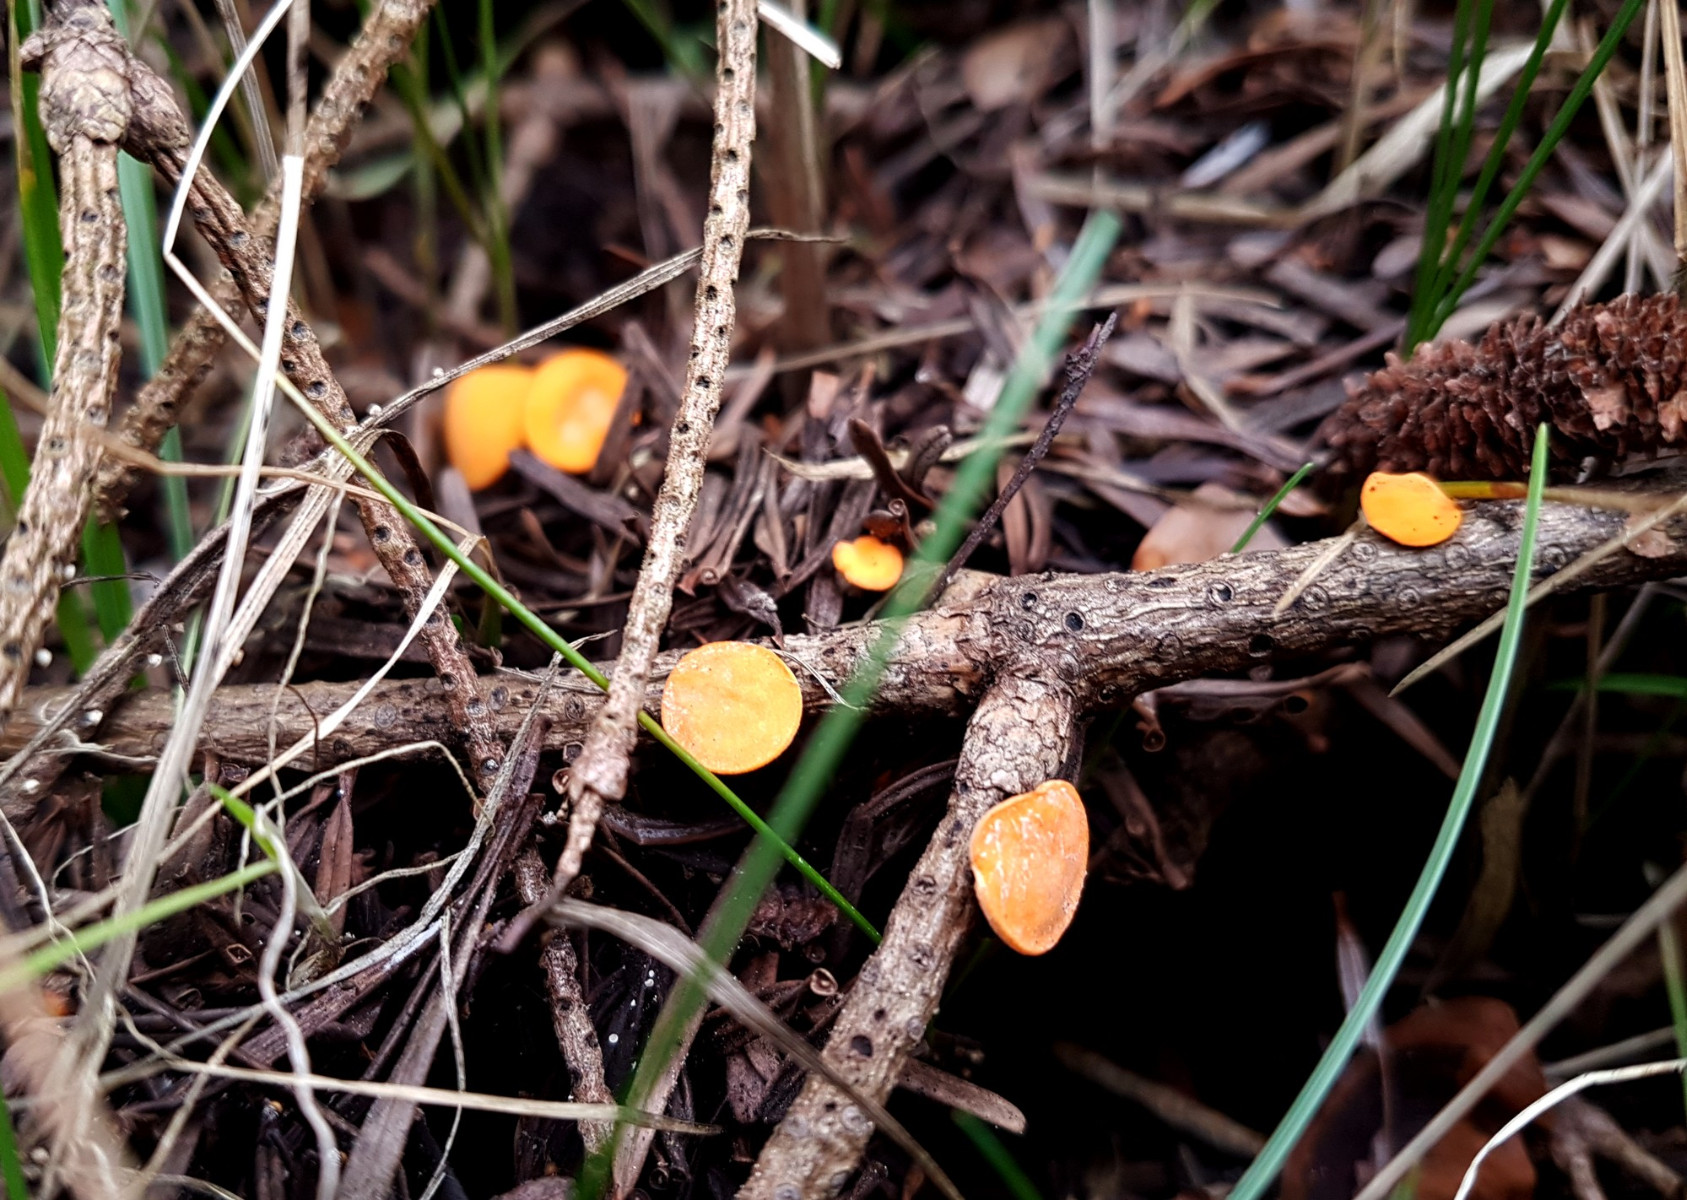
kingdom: Fungi
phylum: Ascomycota
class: Pezizomycetes
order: Pezizales
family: Sarcoscyphaceae
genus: Pithya
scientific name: Pithya vulgaris
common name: stor dukatbæger
